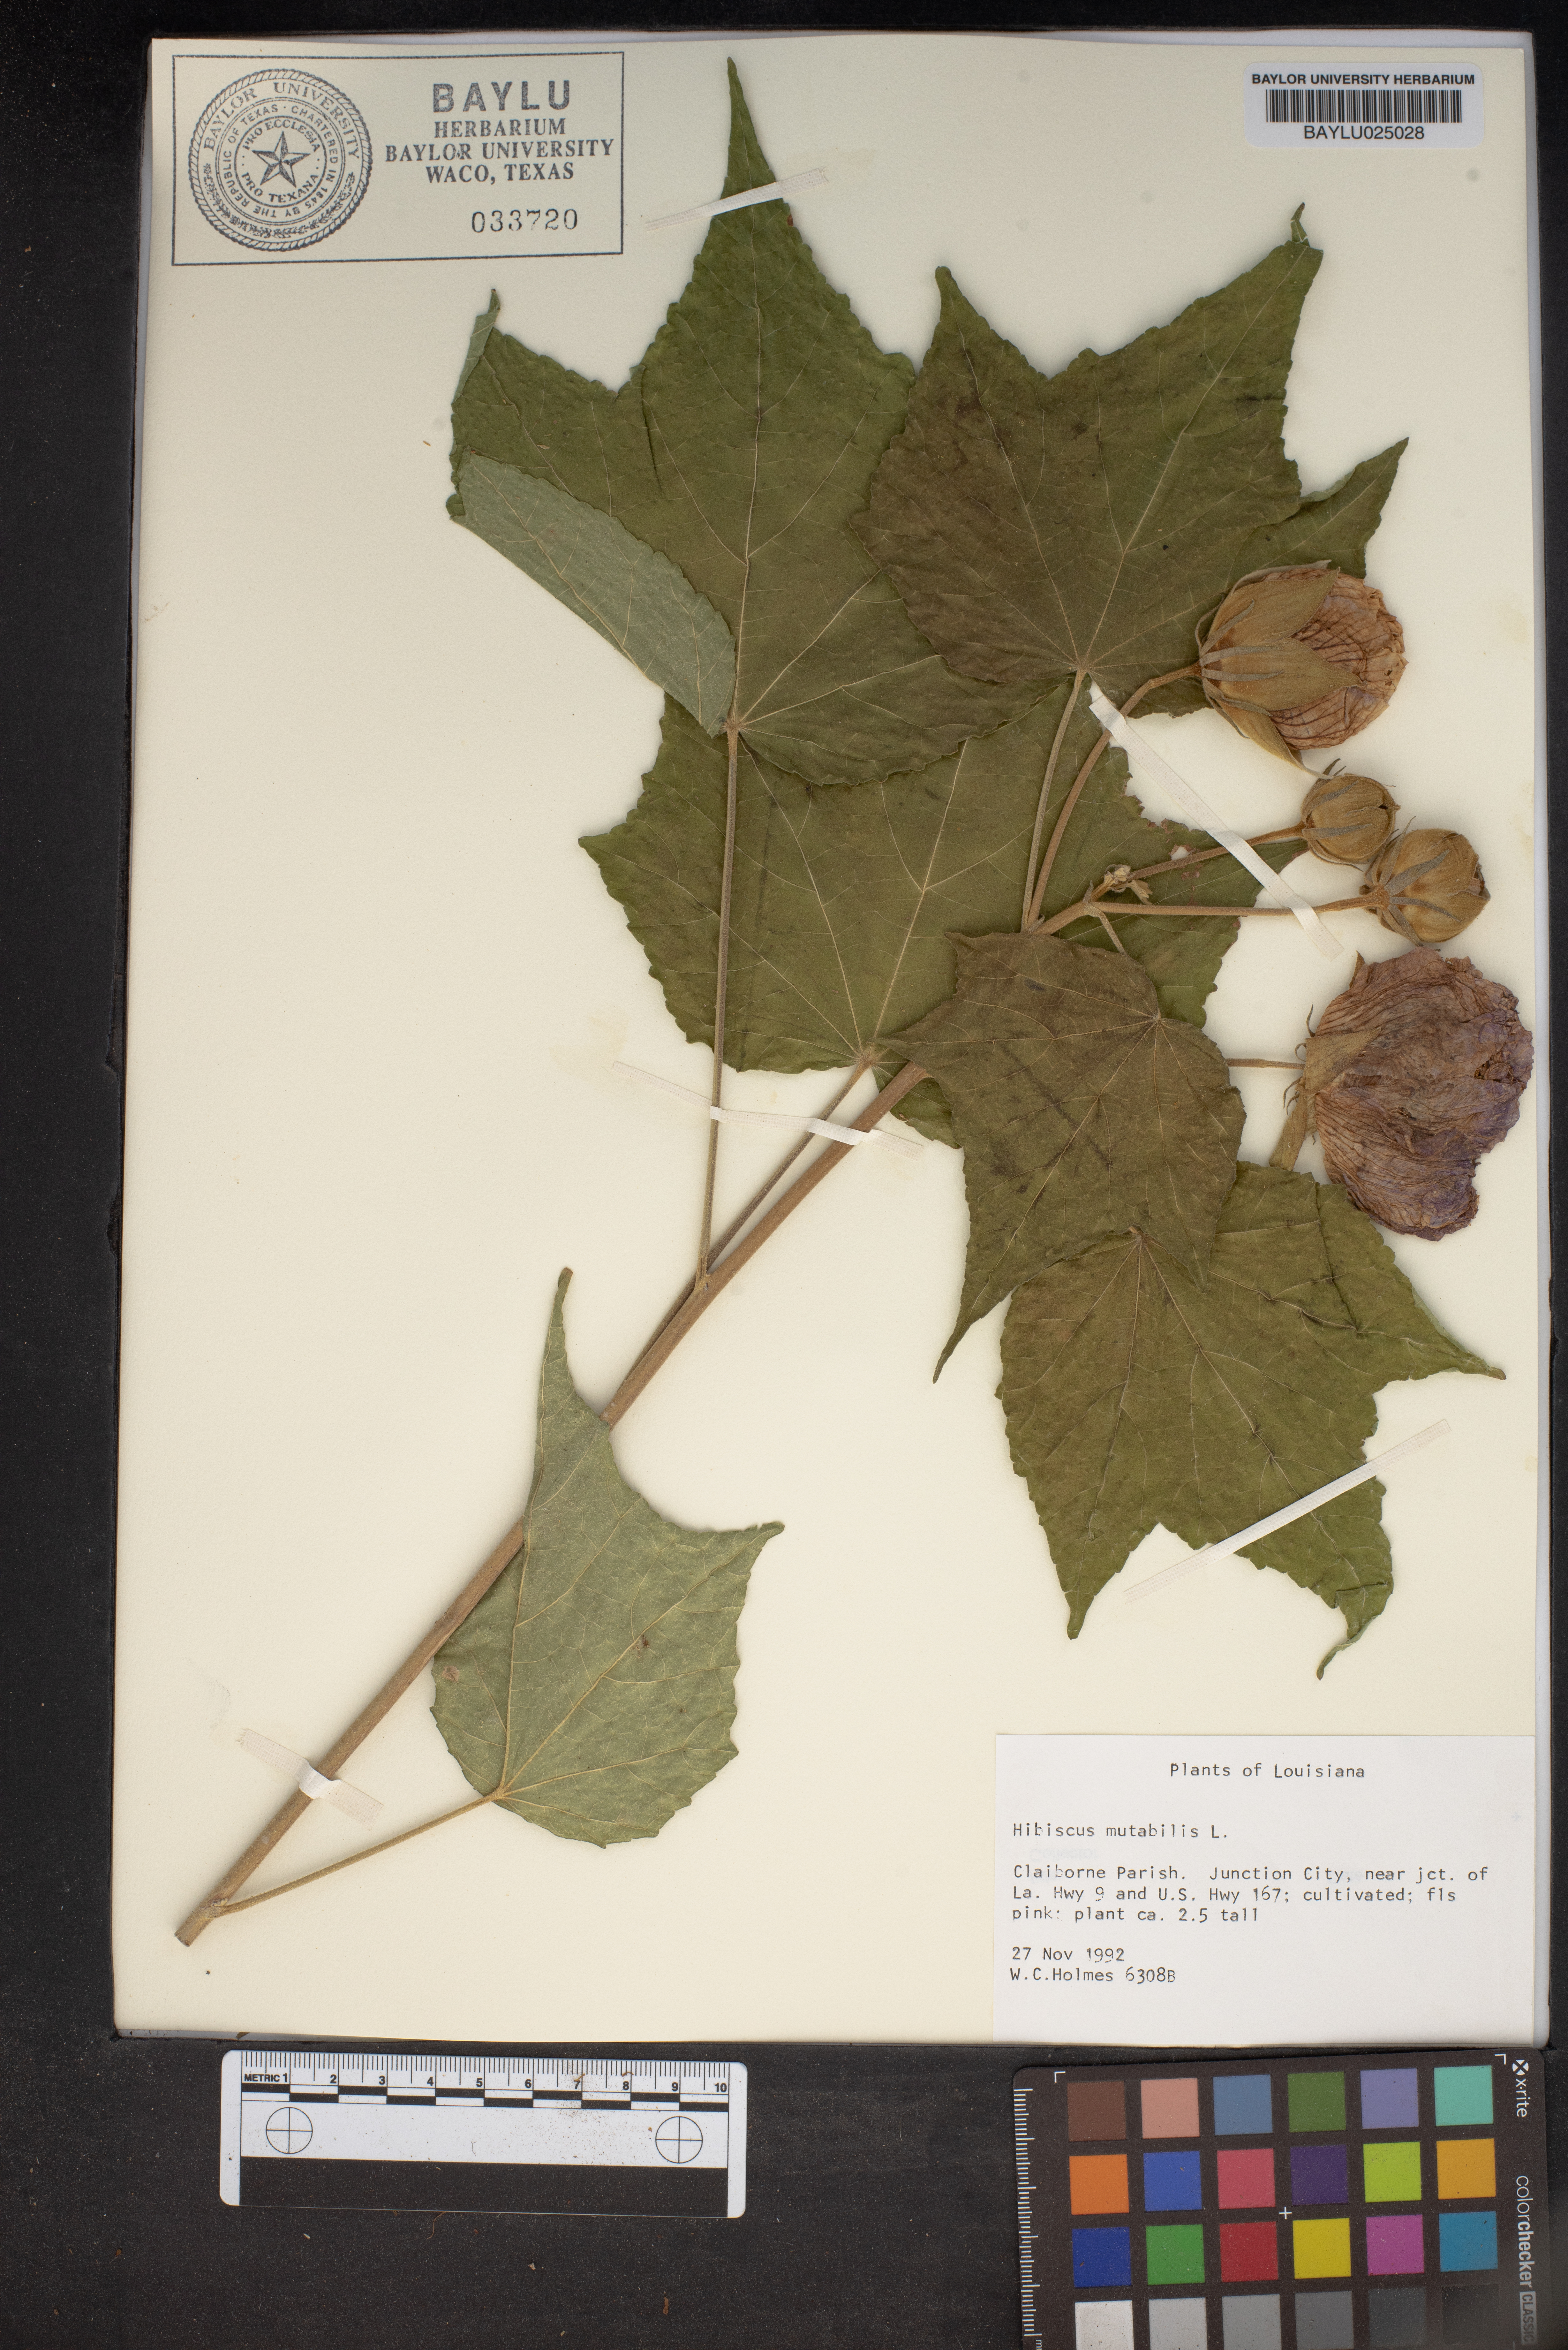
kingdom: Plantae
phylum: Tracheophyta
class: Magnoliopsida
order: Malvales
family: Malvaceae
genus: Hibiscus
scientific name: Hibiscus mutabilis
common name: Dixie rosemallow
